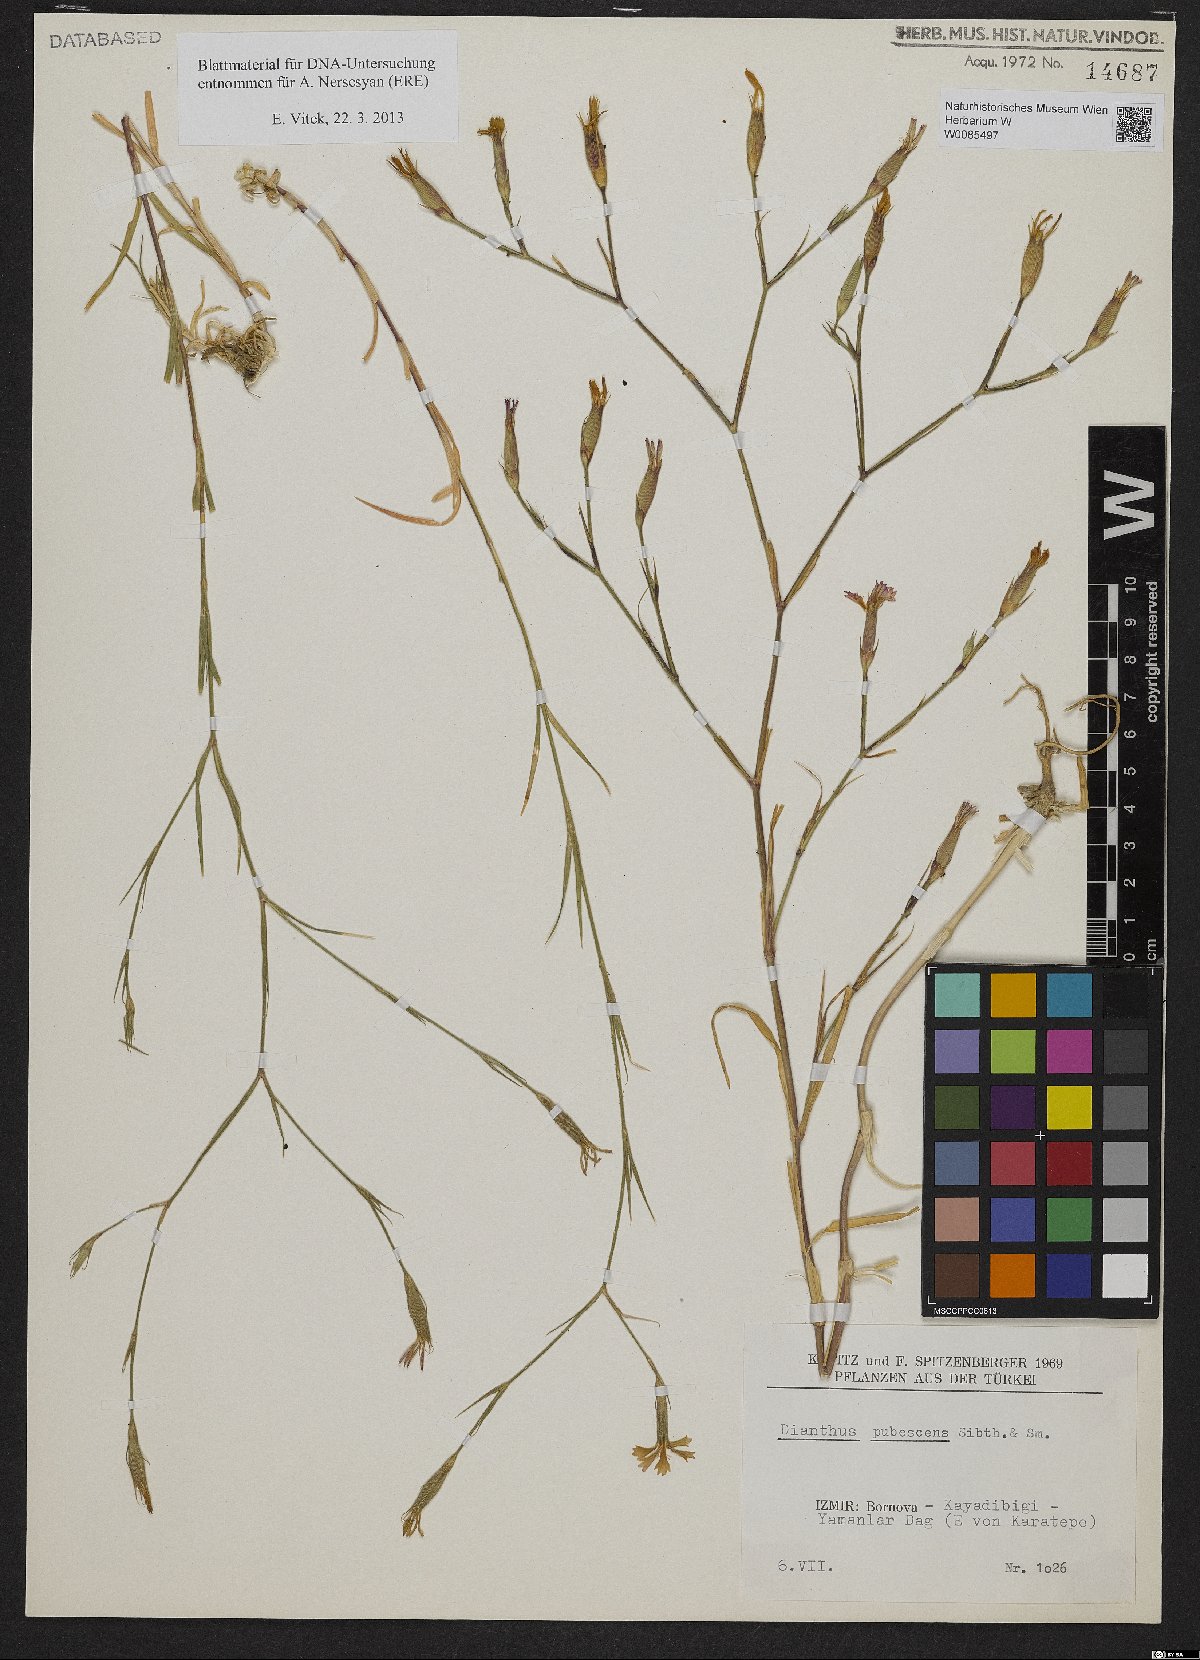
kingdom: Plantae
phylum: Tracheophyta
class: Magnoliopsida
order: Caryophyllales
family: Caryophyllaceae
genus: Dianthus
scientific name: Dianthus diffusus
